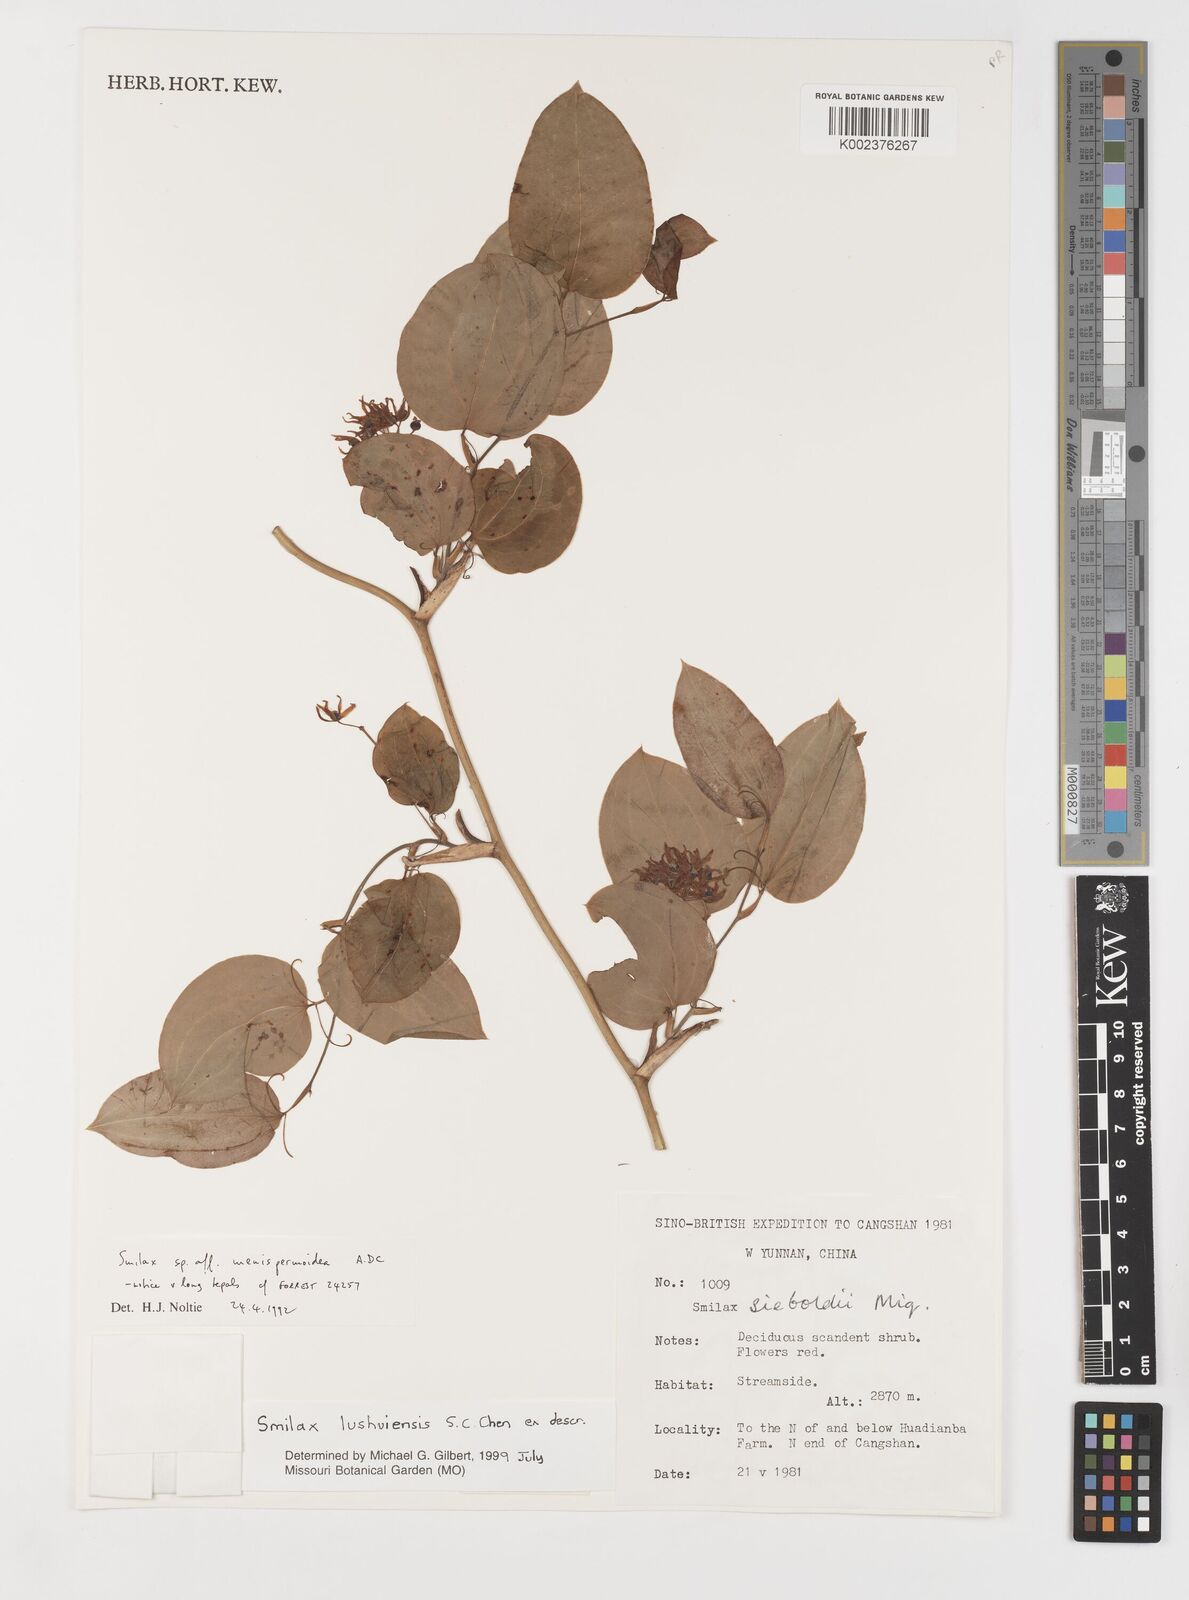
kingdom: Plantae
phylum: Tracheophyta
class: Liliopsida
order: Liliales
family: Smilacaceae
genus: Smilax
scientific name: Smilax lushuiensis
